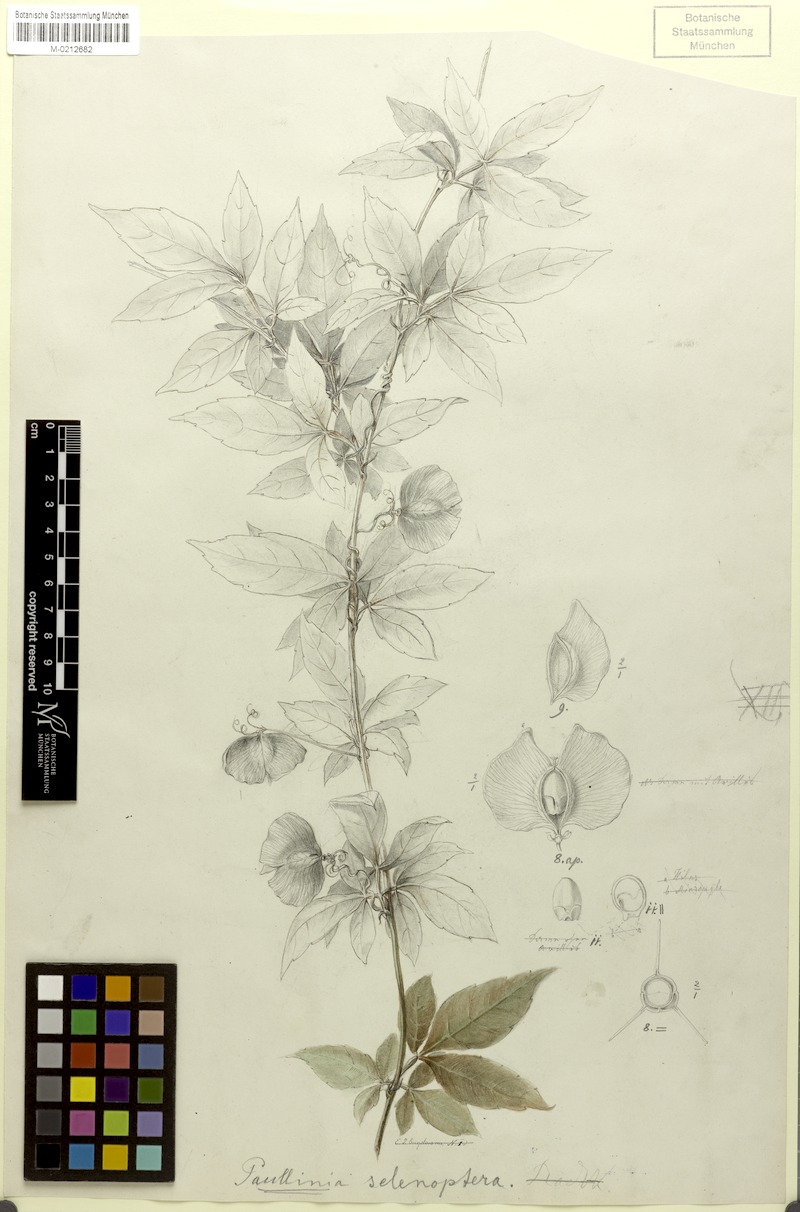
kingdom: Plantae
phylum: Tracheophyta
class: Magnoliopsida
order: Sapindales
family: Sapindaceae
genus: Paullinia
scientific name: Paullinia serjaniifolia
